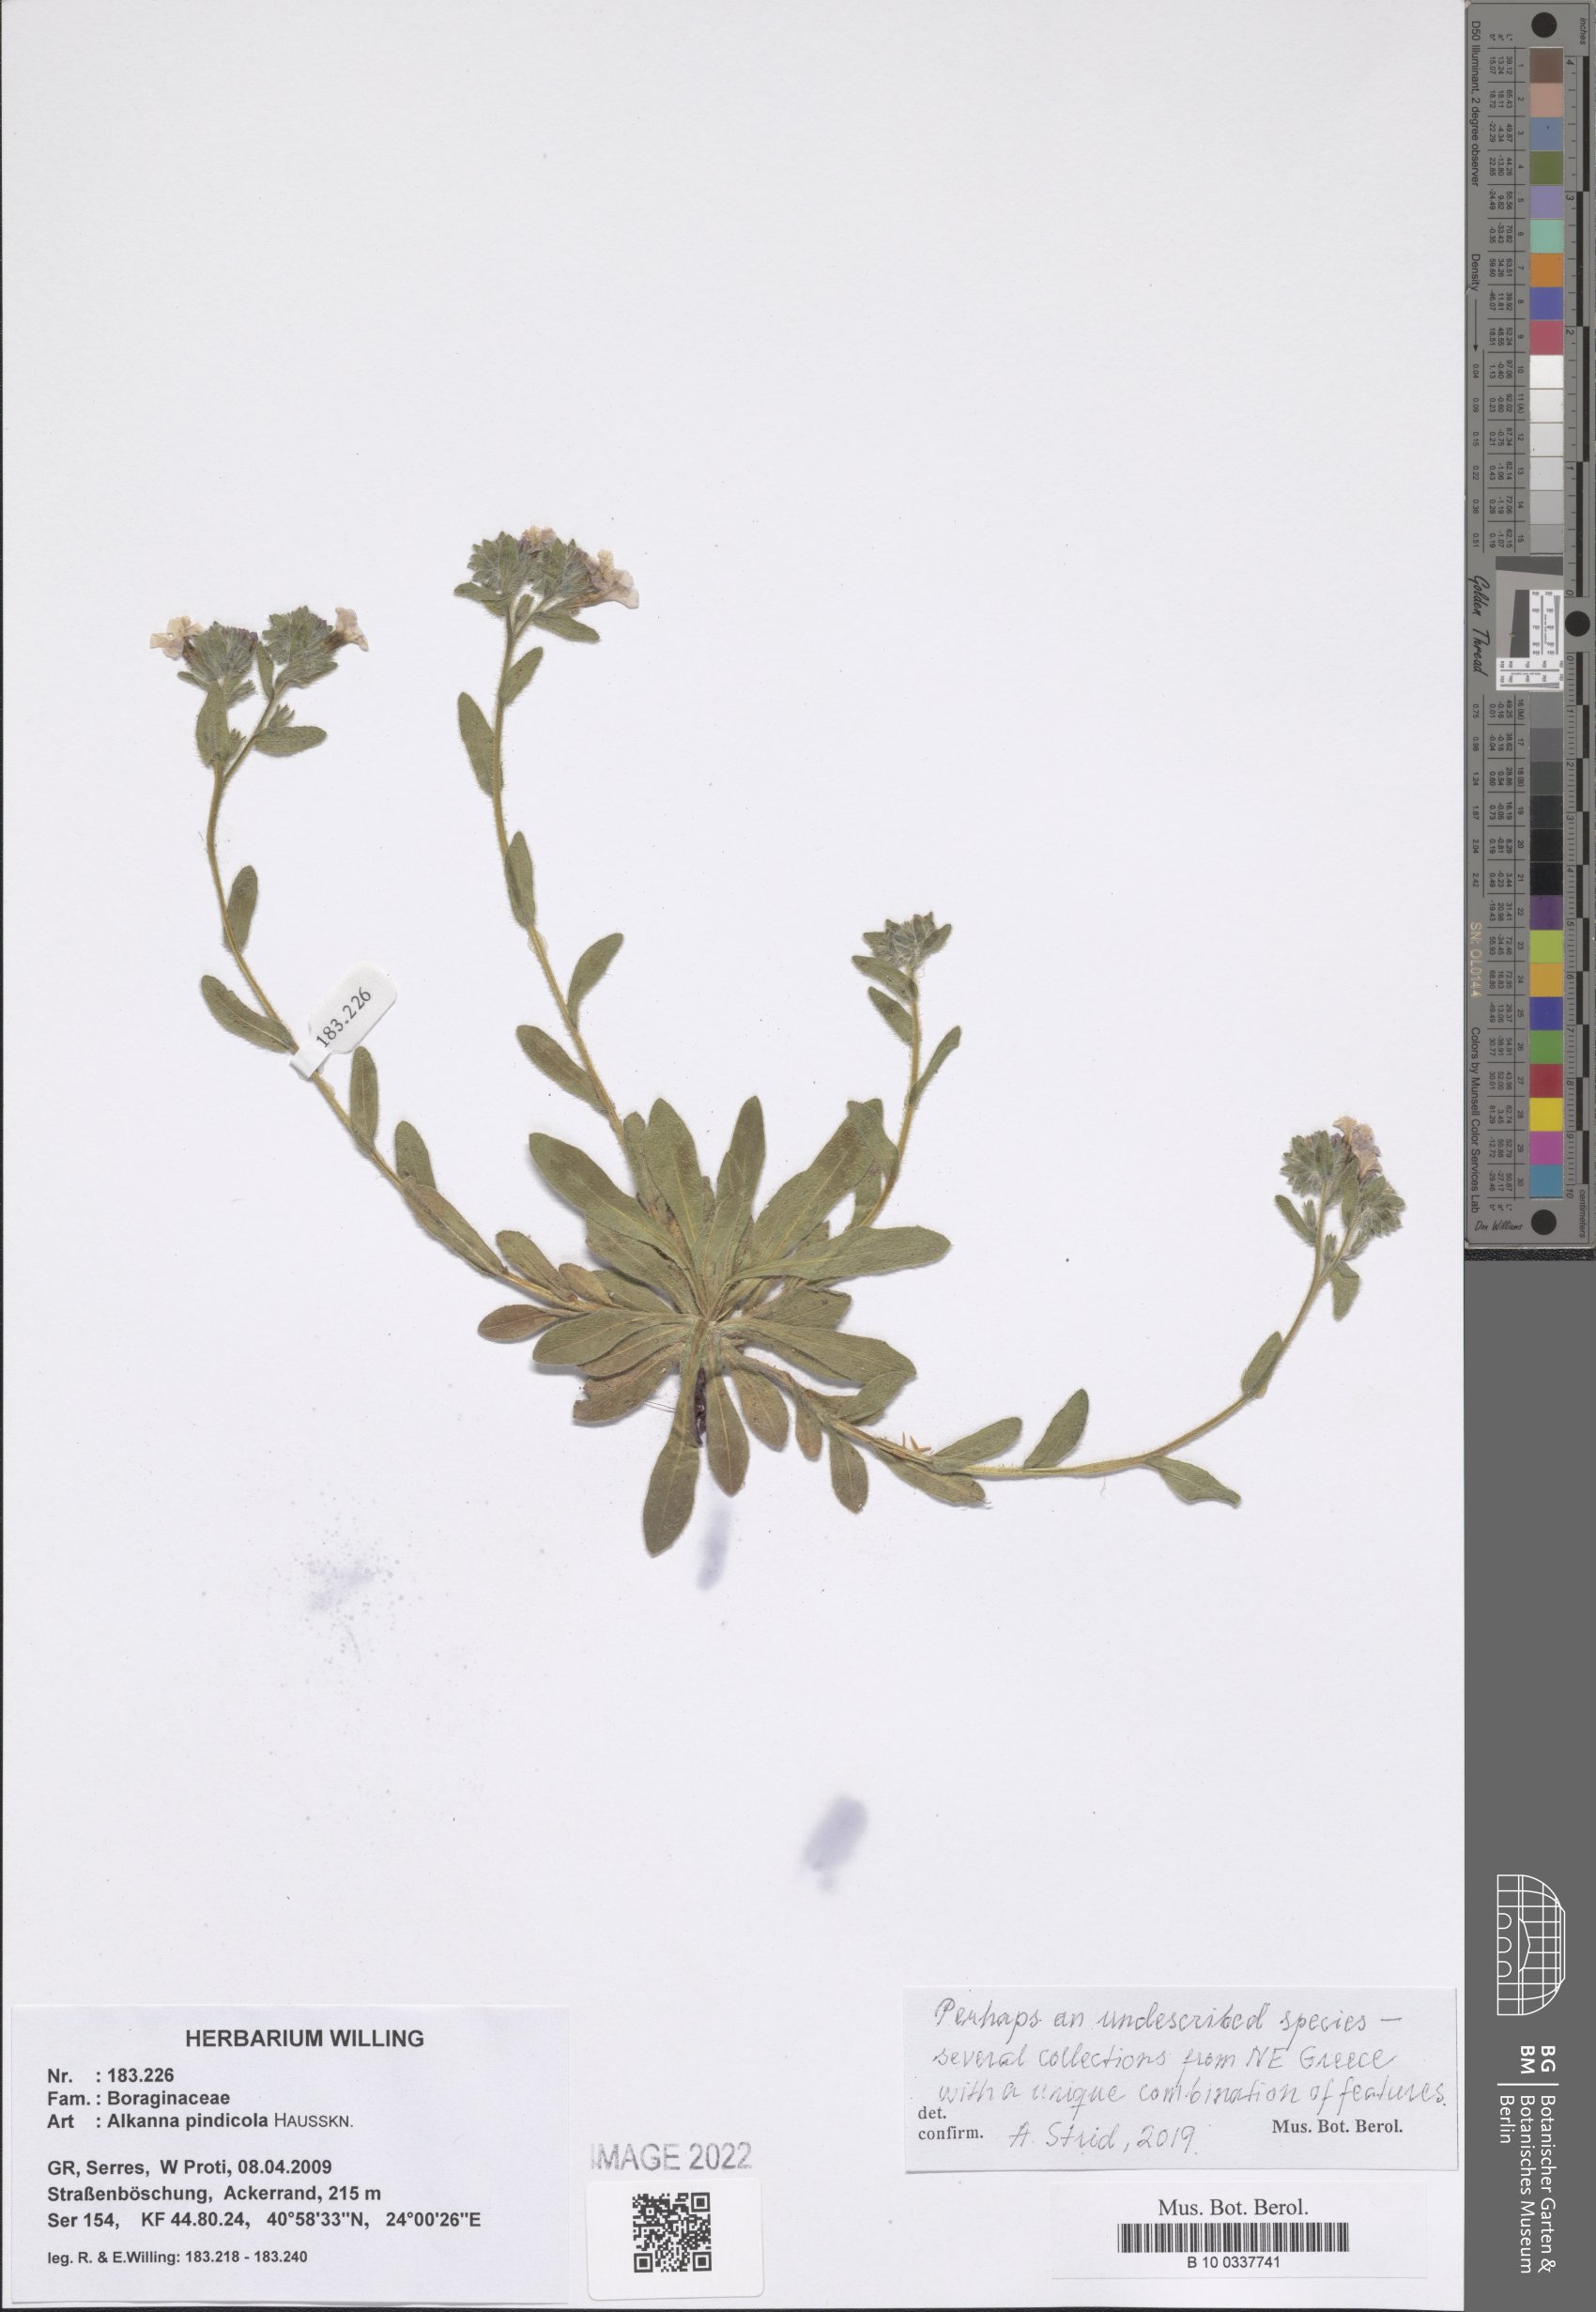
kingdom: Plantae
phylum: Tracheophyta
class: Magnoliopsida
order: Boraginales
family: Boraginaceae
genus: Alkanna
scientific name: Alkanna pindicola
